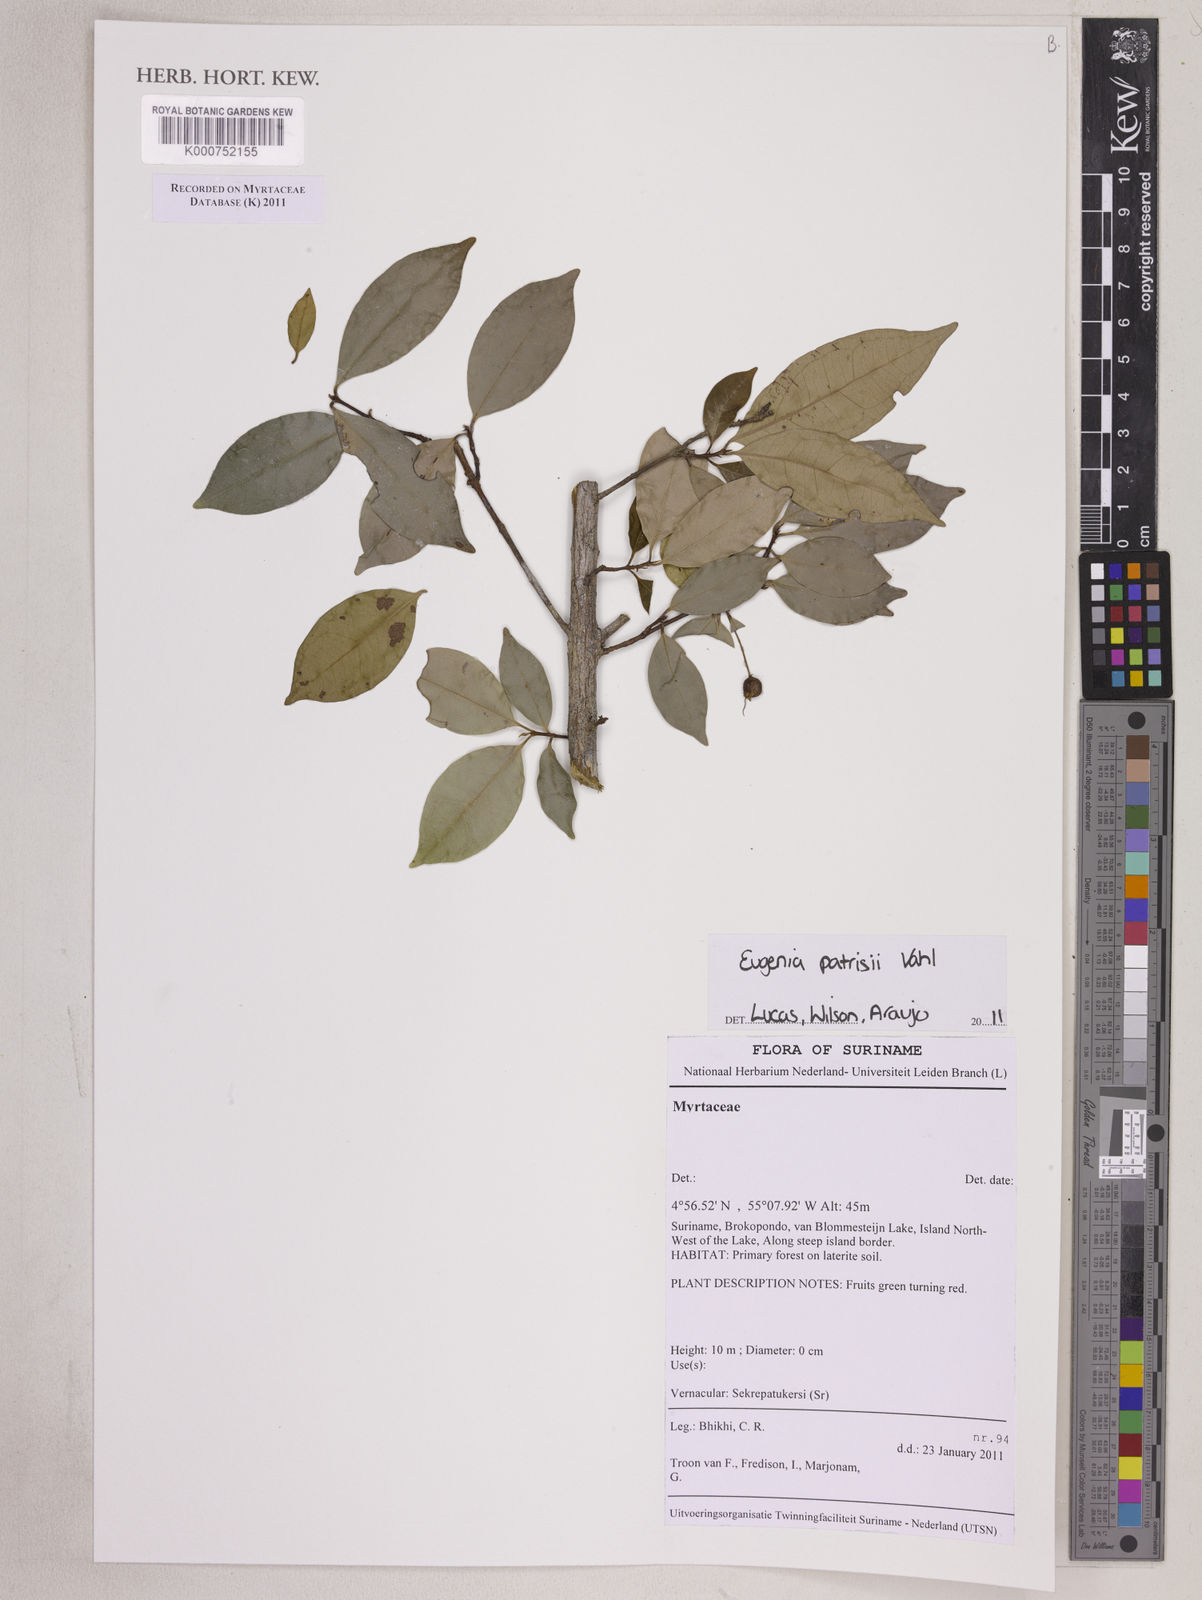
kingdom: Plantae
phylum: Tracheophyta
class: Magnoliopsida
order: Myrtales
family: Myrtaceae
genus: Eugenia
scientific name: Eugenia patrisii
